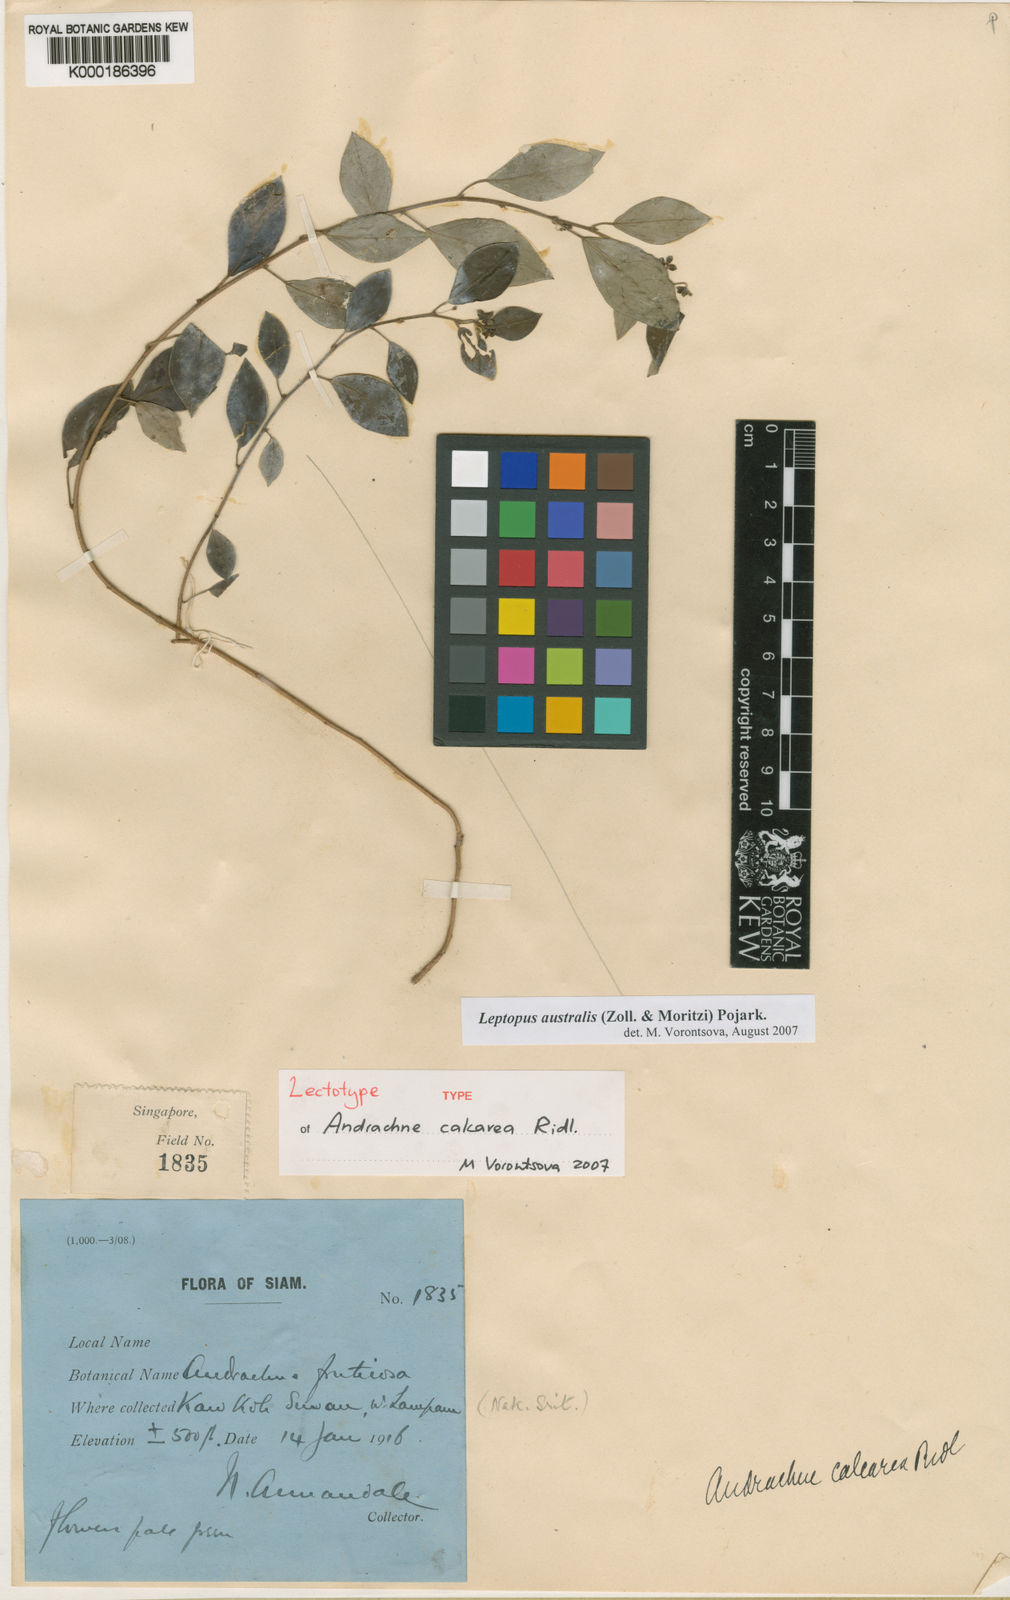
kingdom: Plantae
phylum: Tracheophyta
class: Magnoliopsida
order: Malpighiales
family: Phyllanthaceae
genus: Leptopus
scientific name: Leptopus australis
